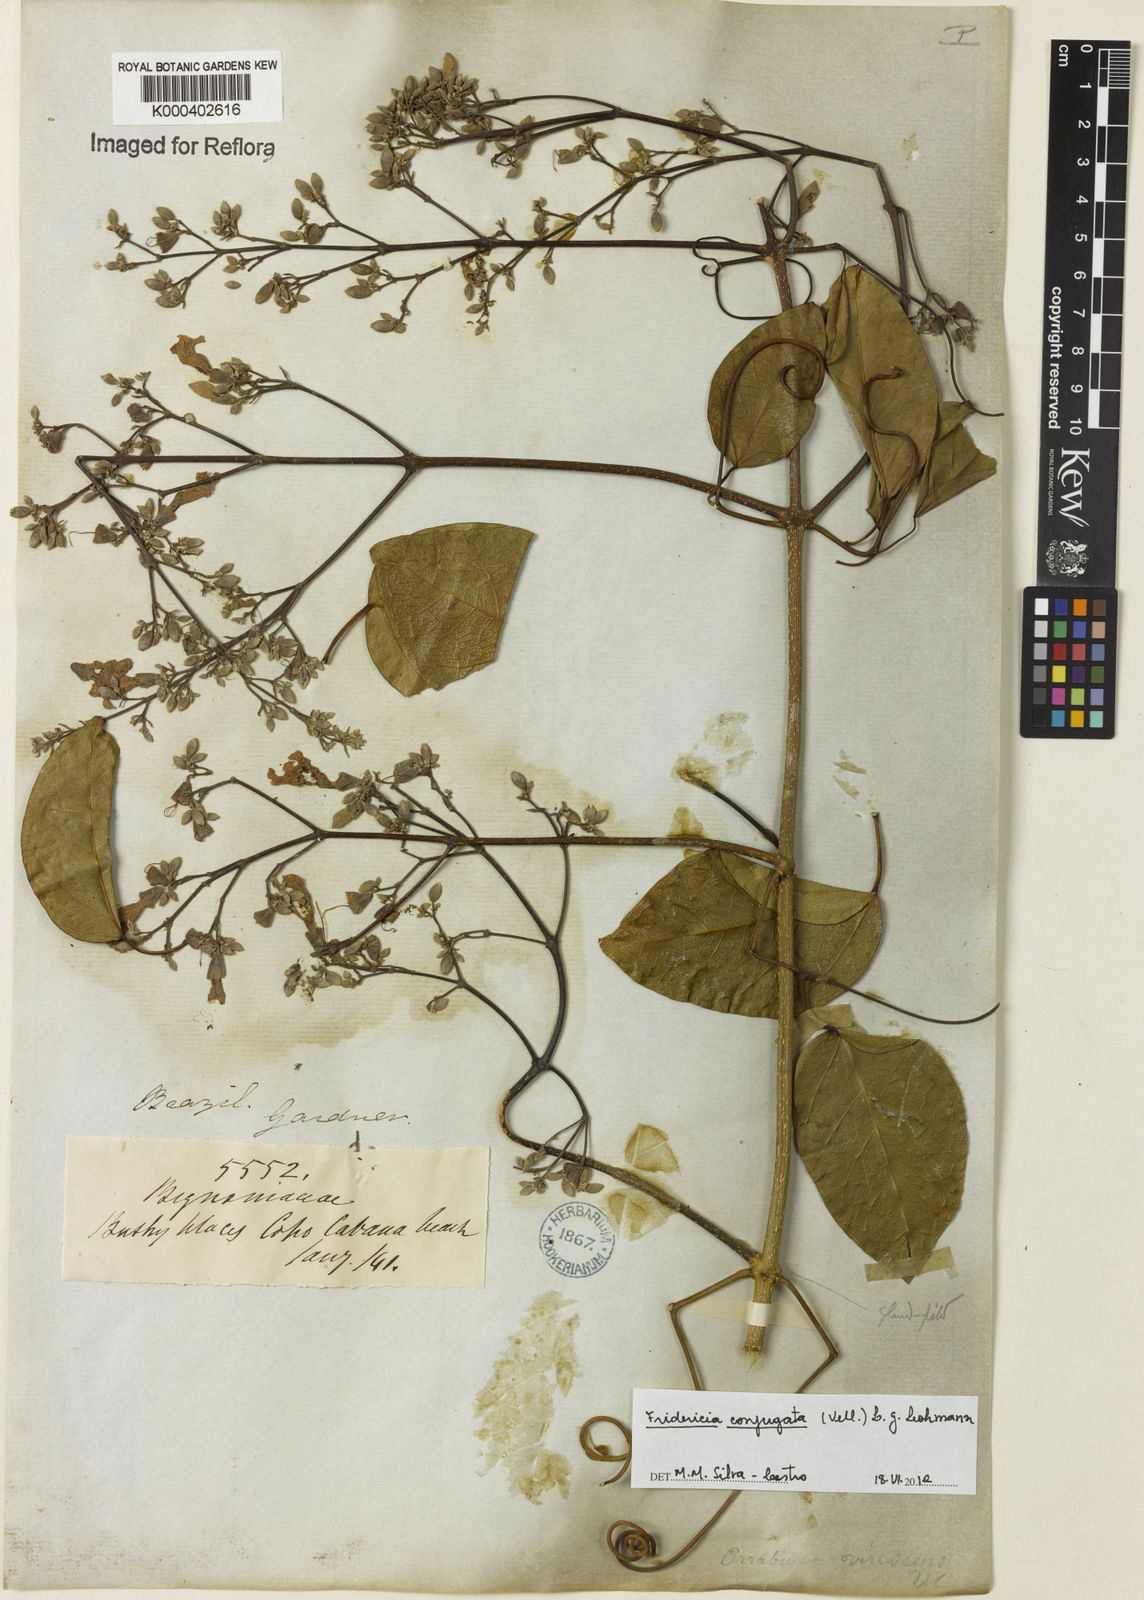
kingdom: Plantae
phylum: Tracheophyta
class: Magnoliopsida
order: Lamiales
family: Bignoniaceae
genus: Fridericia
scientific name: Fridericia conjugata
